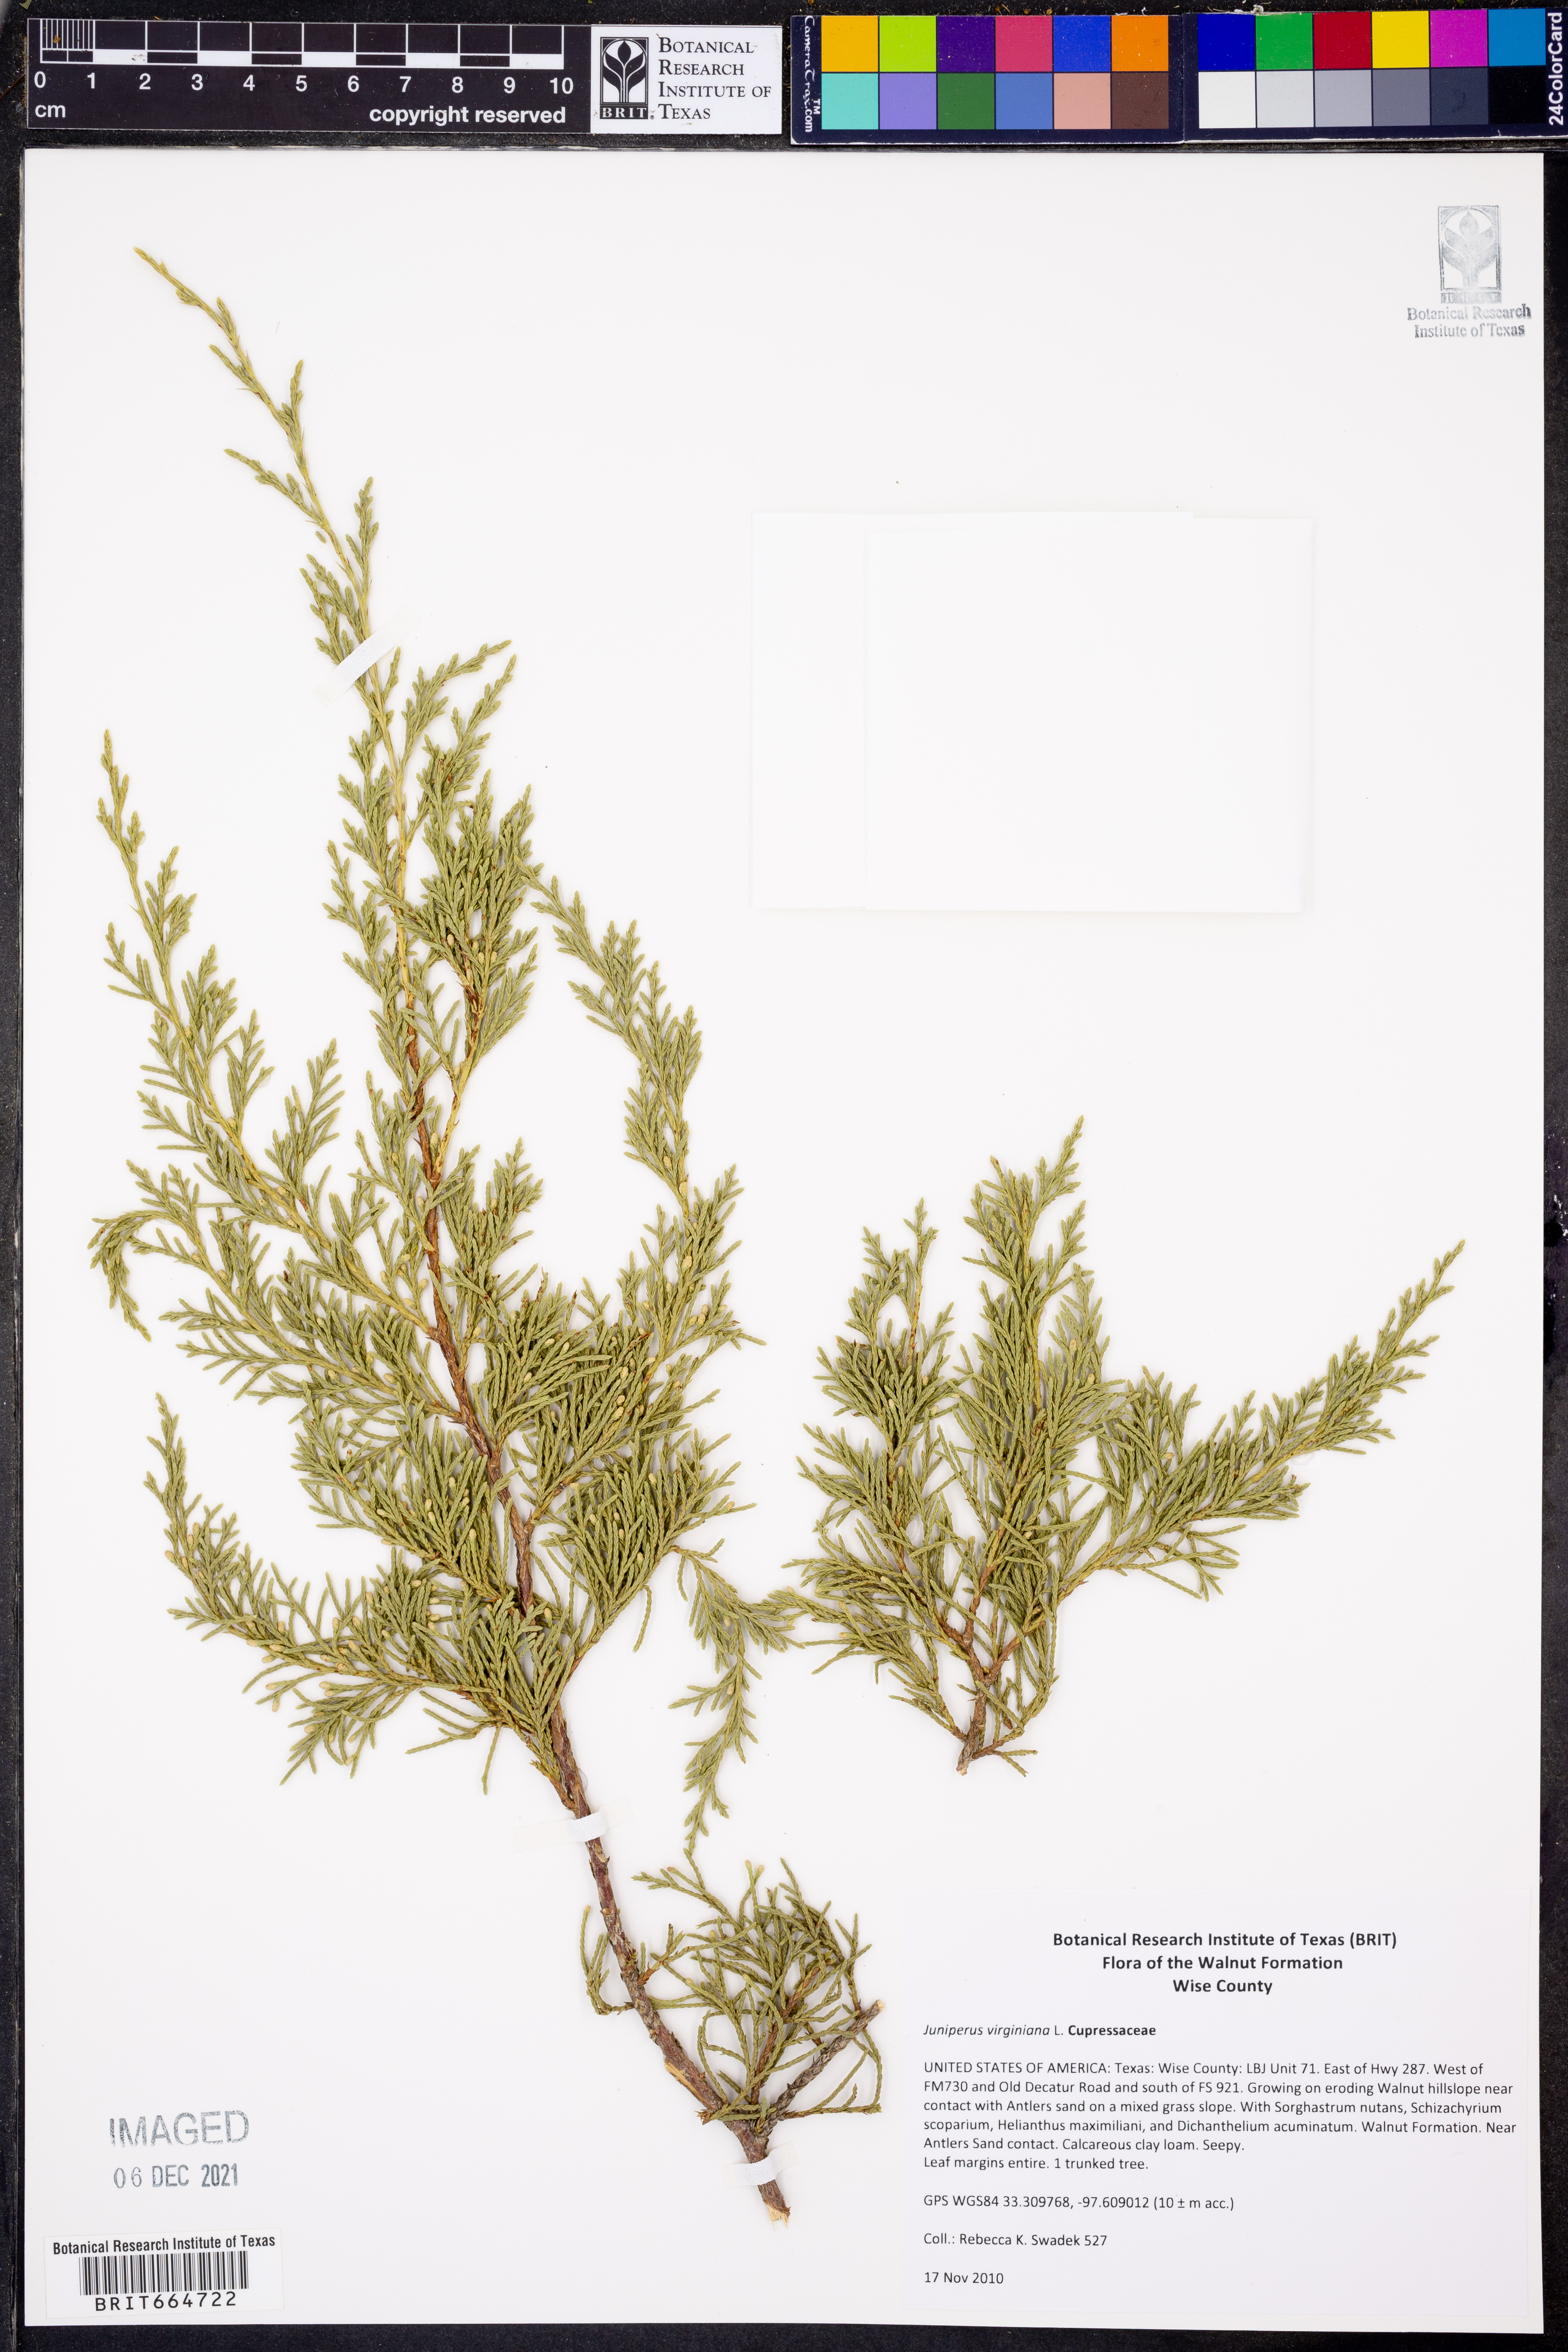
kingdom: Plantae
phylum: Tracheophyta
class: Pinopsida
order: Pinales
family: Cupressaceae
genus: Juniperus
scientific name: Juniperus virginiana
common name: Red juniper
